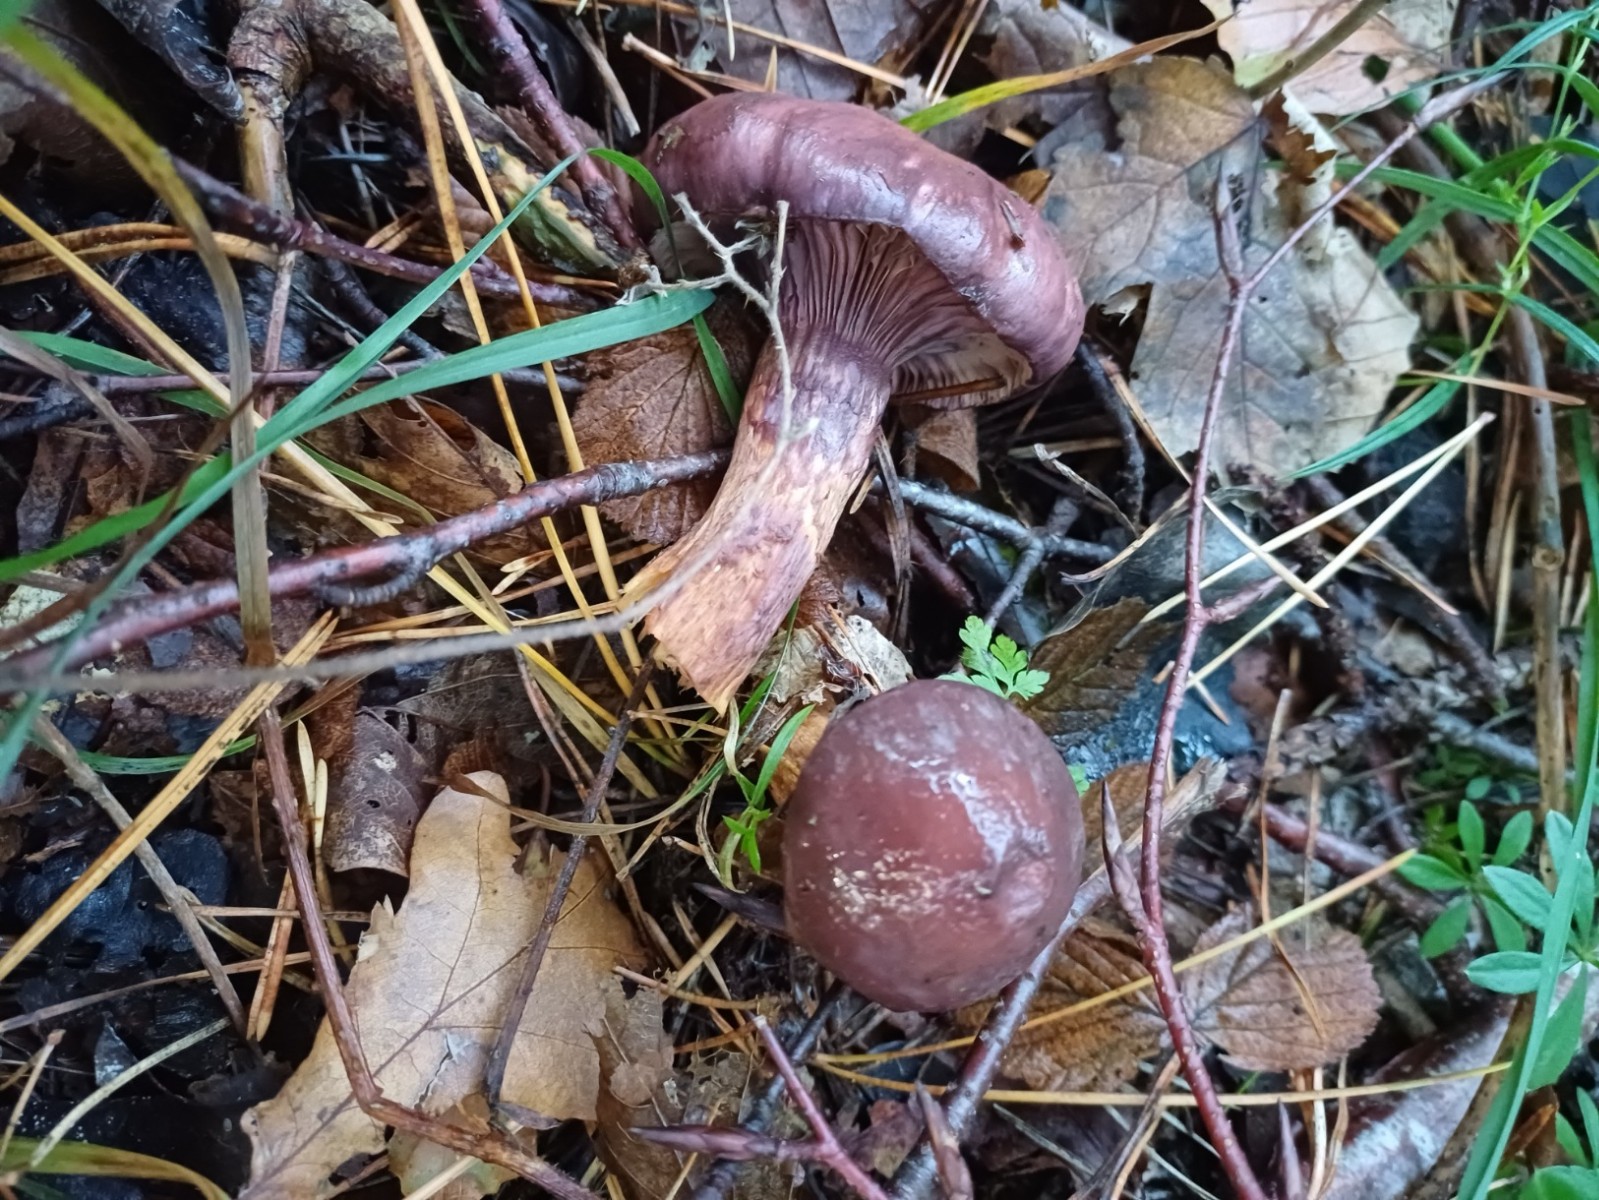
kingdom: Fungi
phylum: Basidiomycota
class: Agaricomycetes
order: Boletales
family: Gomphidiaceae
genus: Chroogomphus
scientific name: Chroogomphus rutilus
